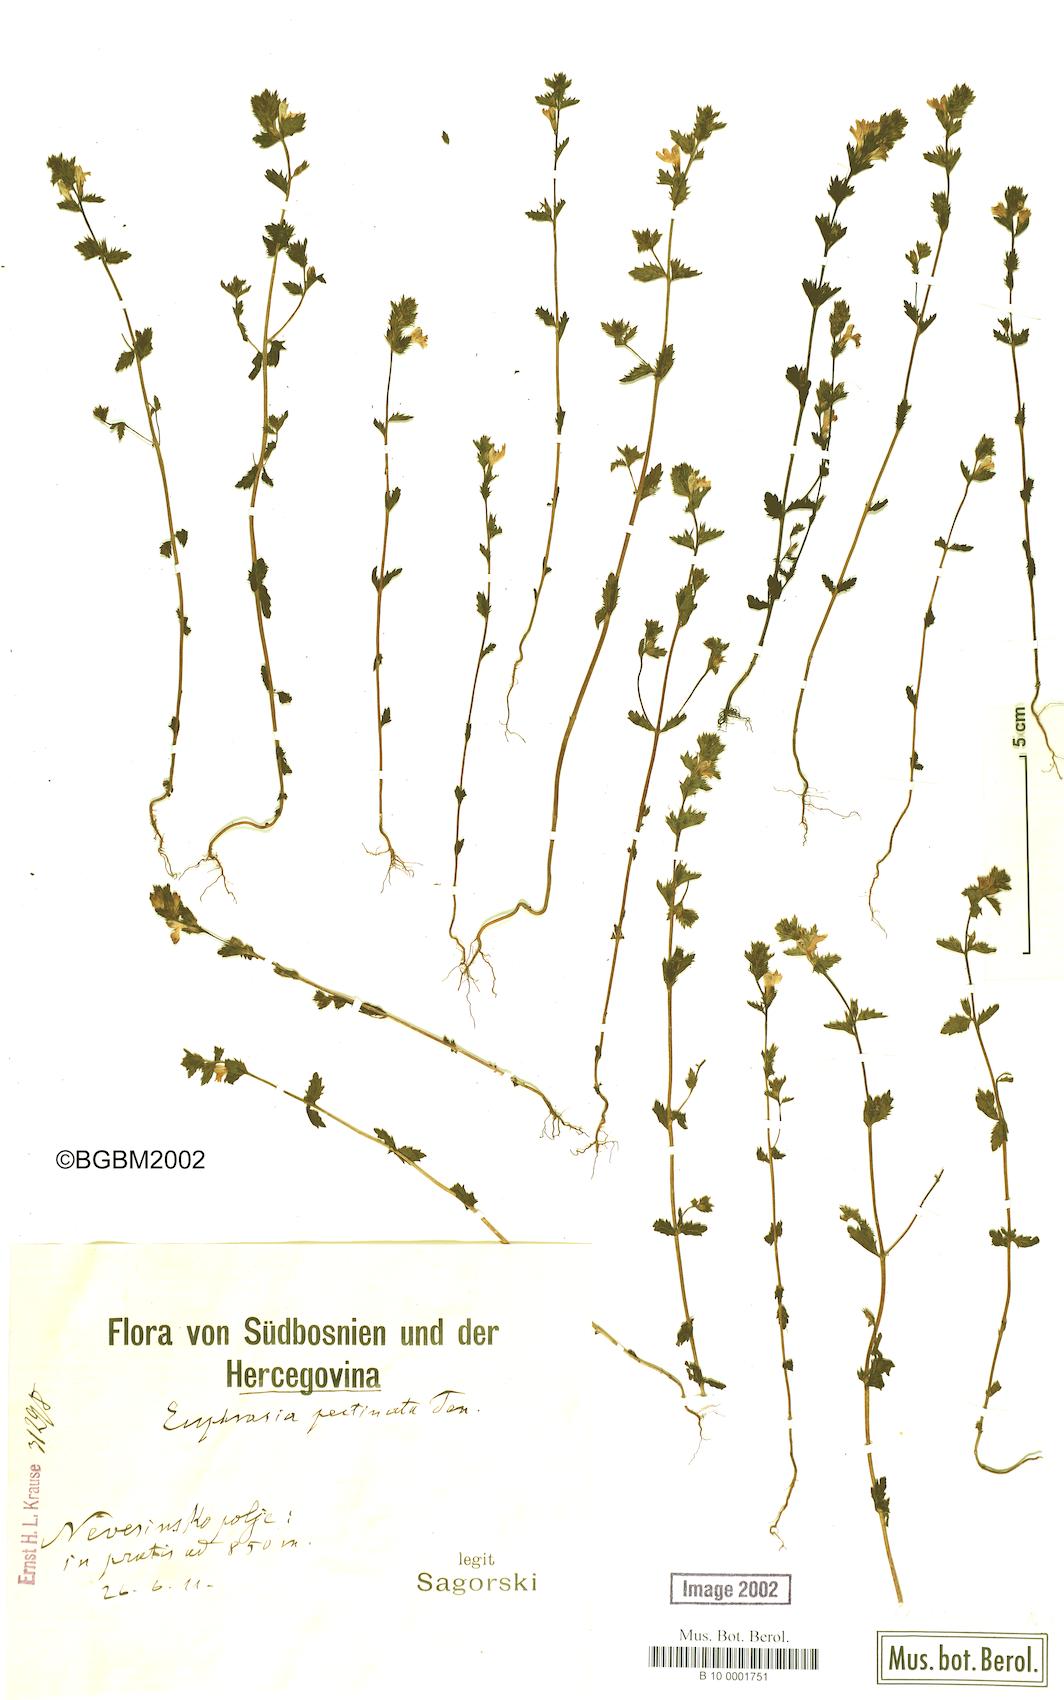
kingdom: Plantae
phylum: Tracheophyta
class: Magnoliopsida
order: Lamiales
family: Orobanchaceae
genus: Euphrasia
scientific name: Euphrasia pectinata
